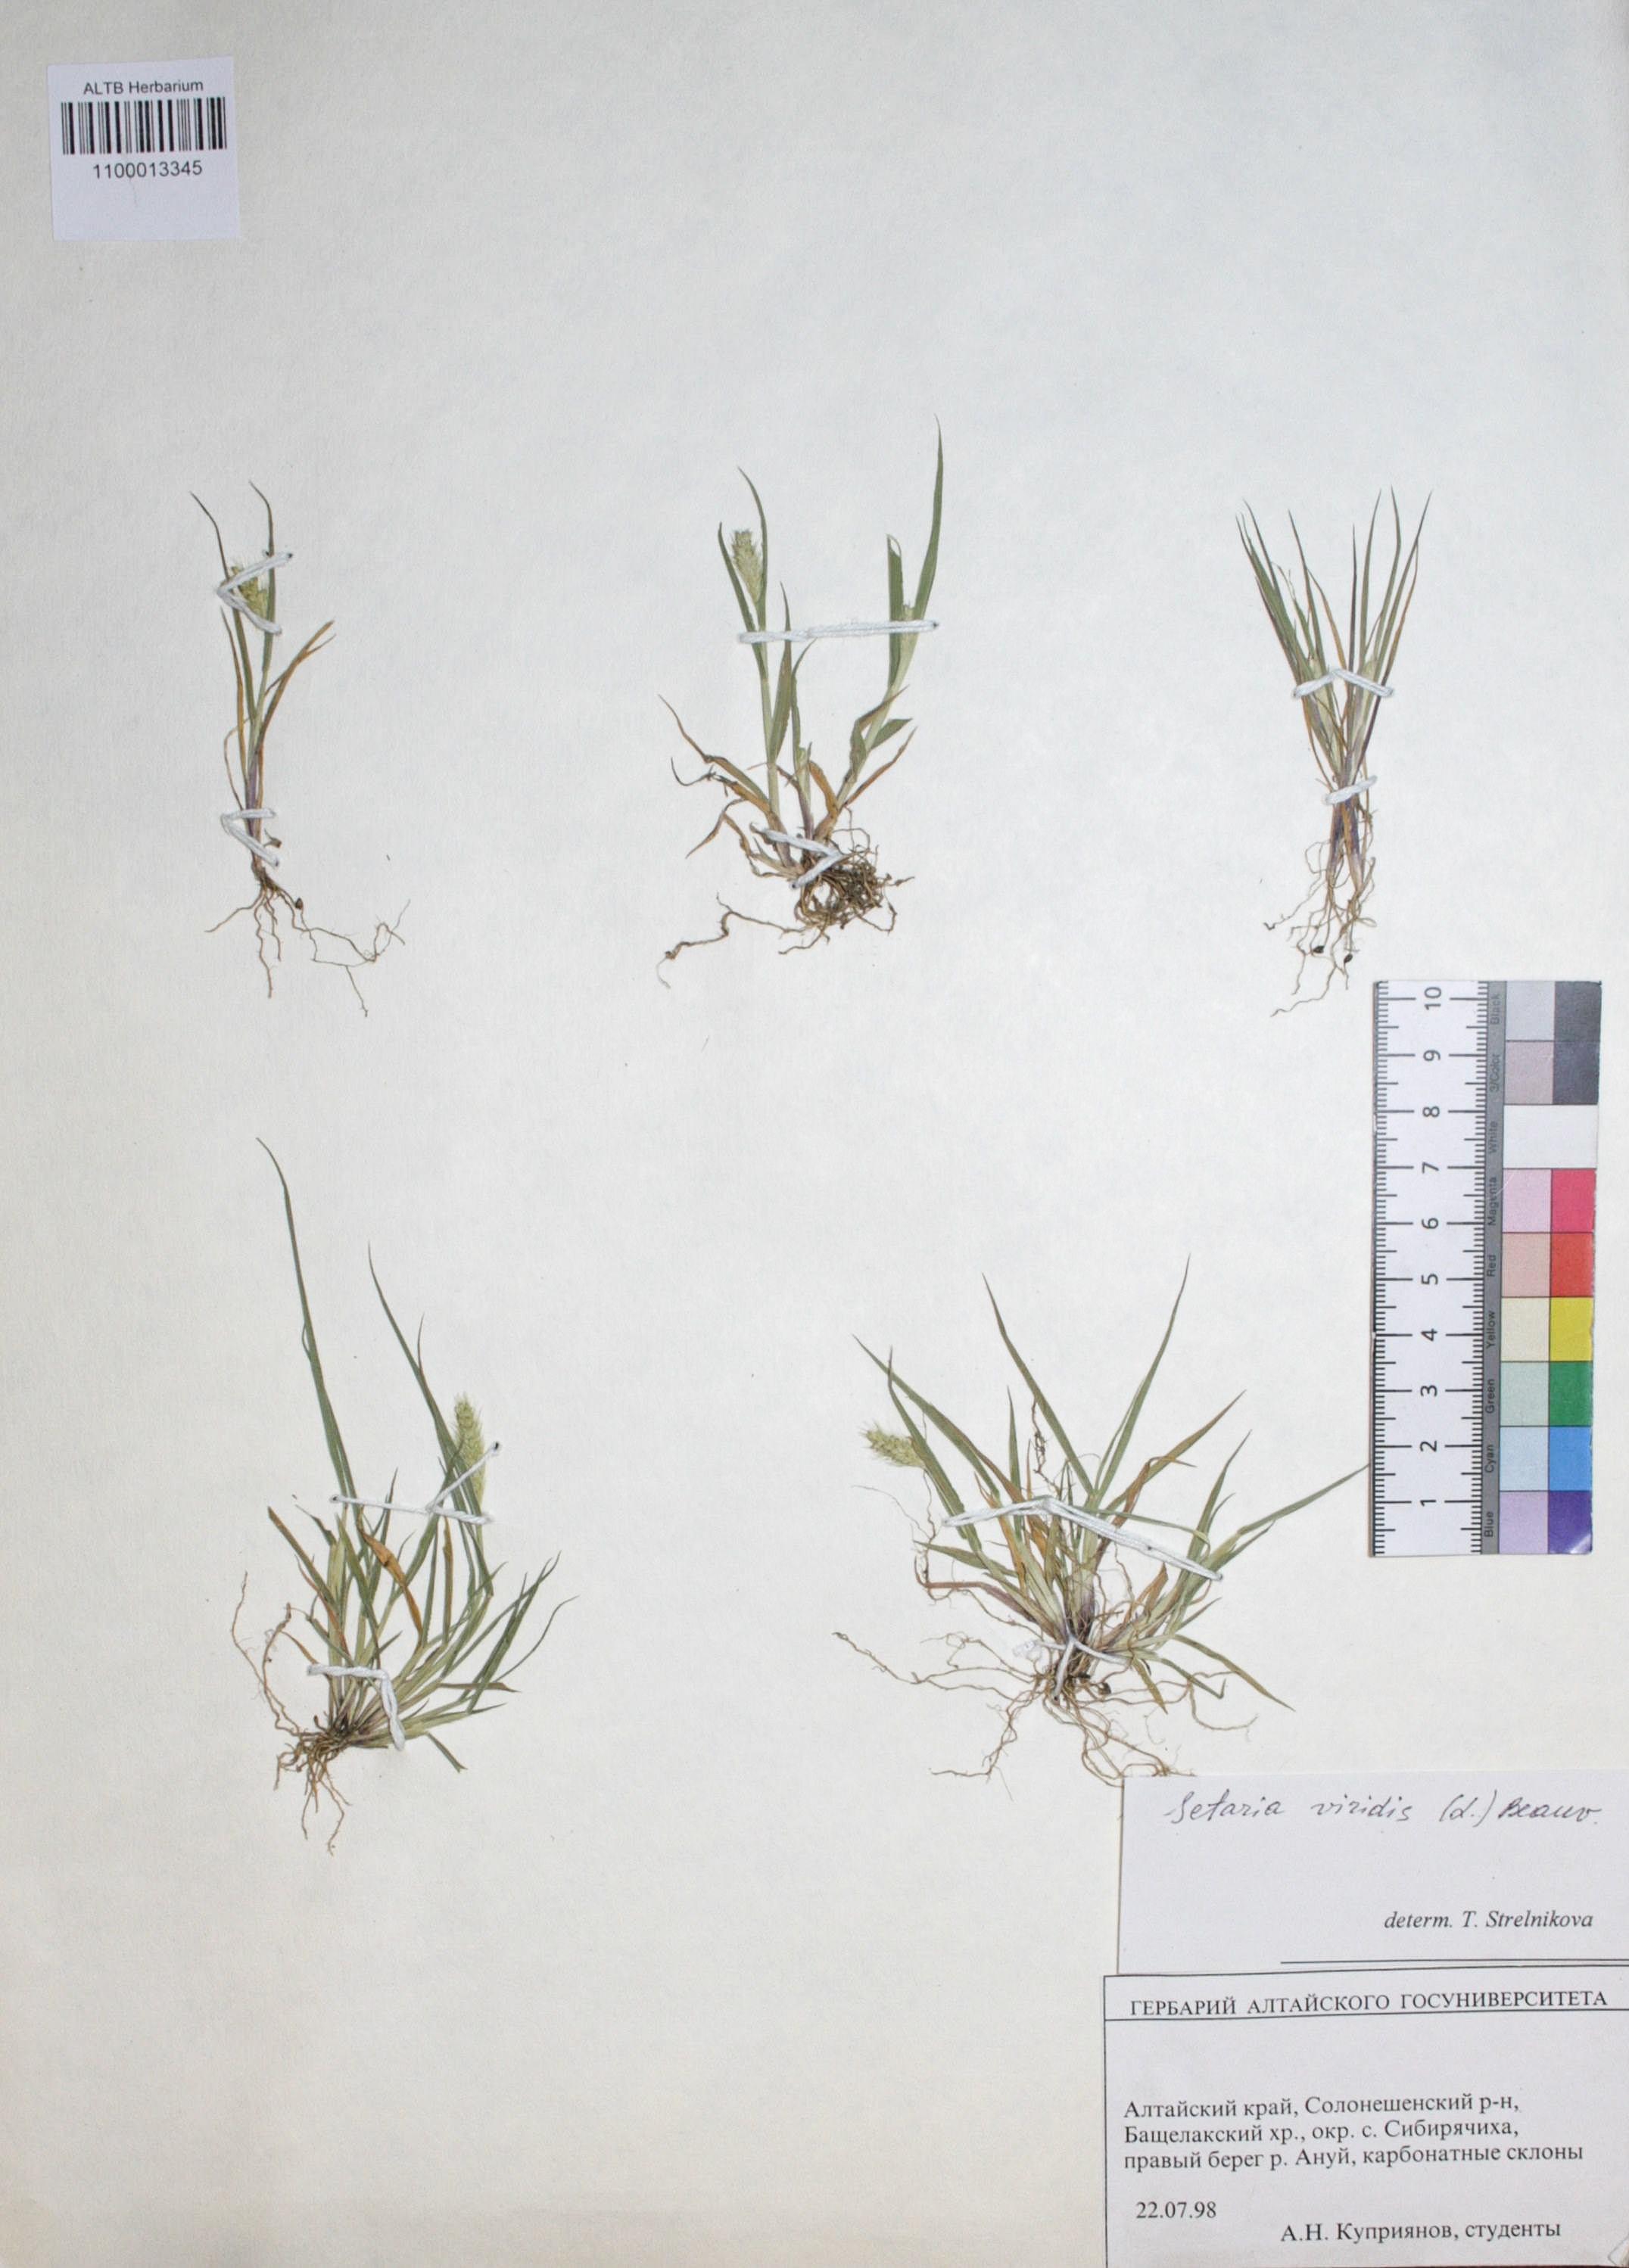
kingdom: Plantae
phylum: Tracheophyta
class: Liliopsida
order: Poales
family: Poaceae
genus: Setaria
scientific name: Setaria viridis
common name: Green bristlegrass
